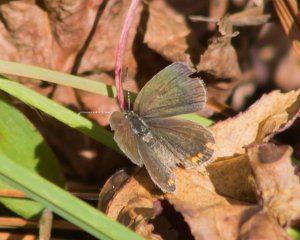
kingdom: Animalia
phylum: Arthropoda
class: Insecta
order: Lepidoptera
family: Lycaenidae
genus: Elkalyce
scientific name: Elkalyce comyntas
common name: Eastern Tailed-Blue
